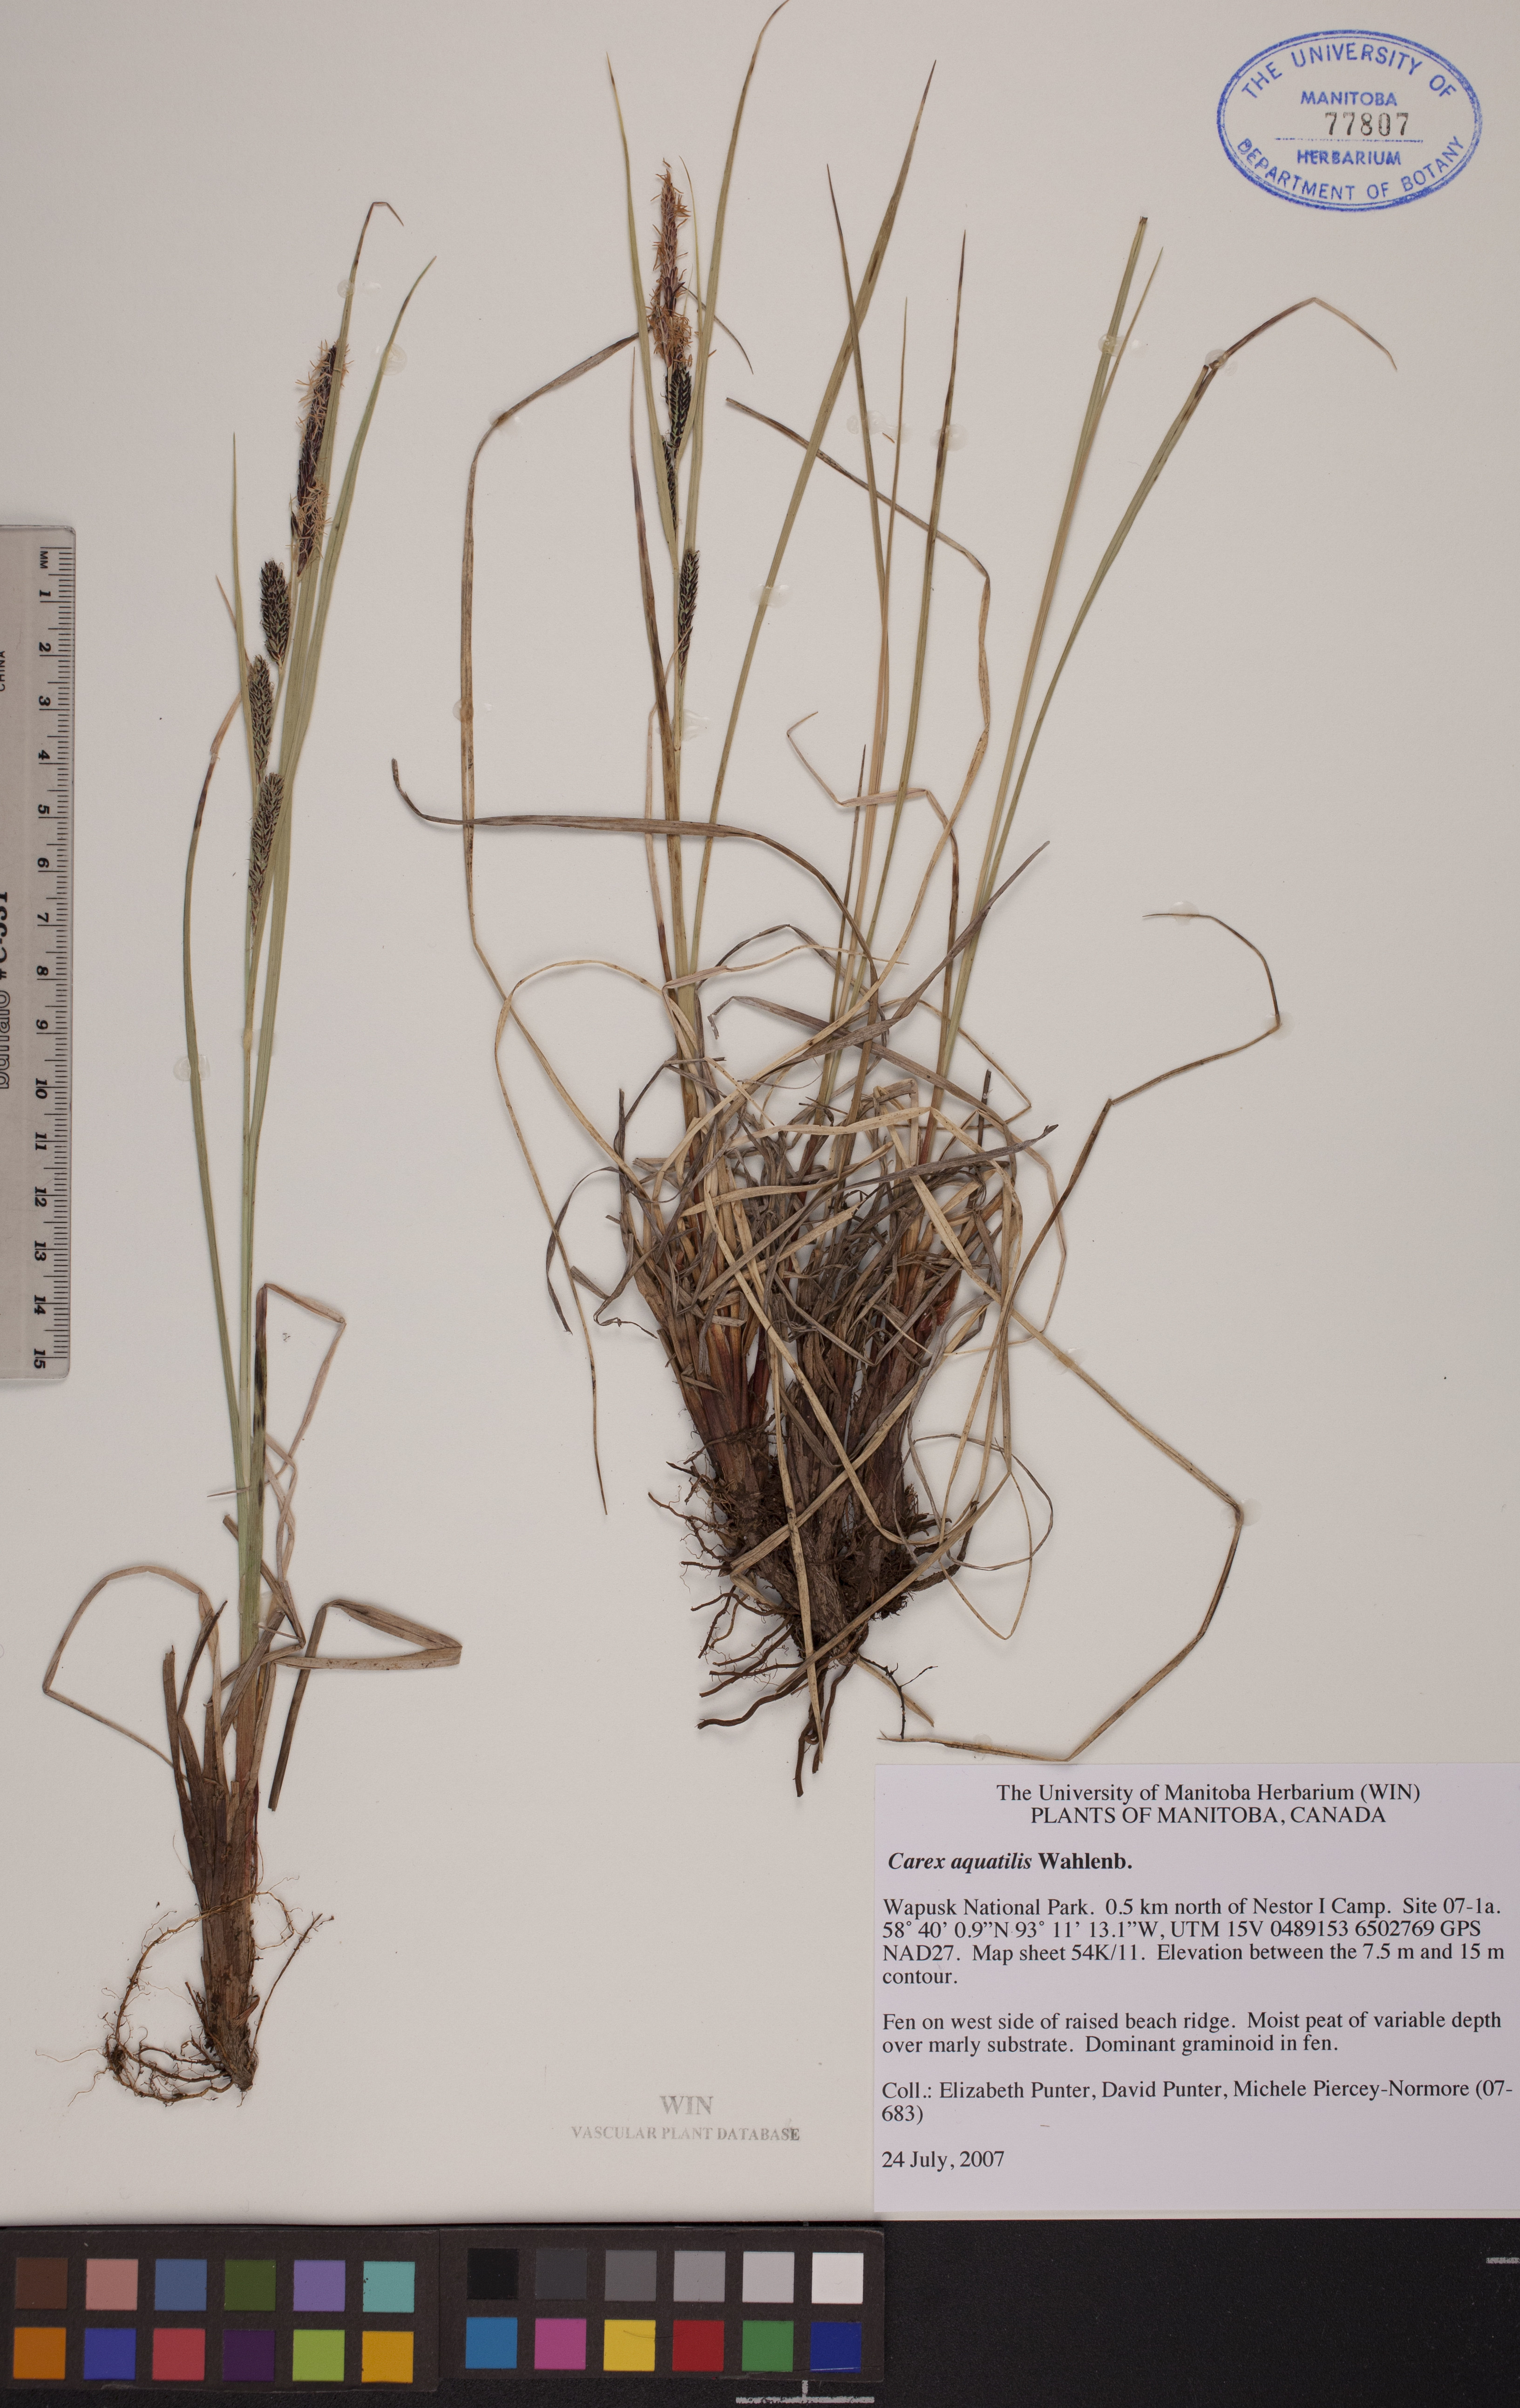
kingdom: Plantae
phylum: Tracheophyta
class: Liliopsida
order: Poales
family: Cyperaceae
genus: Carex
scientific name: Carex aquatilis
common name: Water sedge
